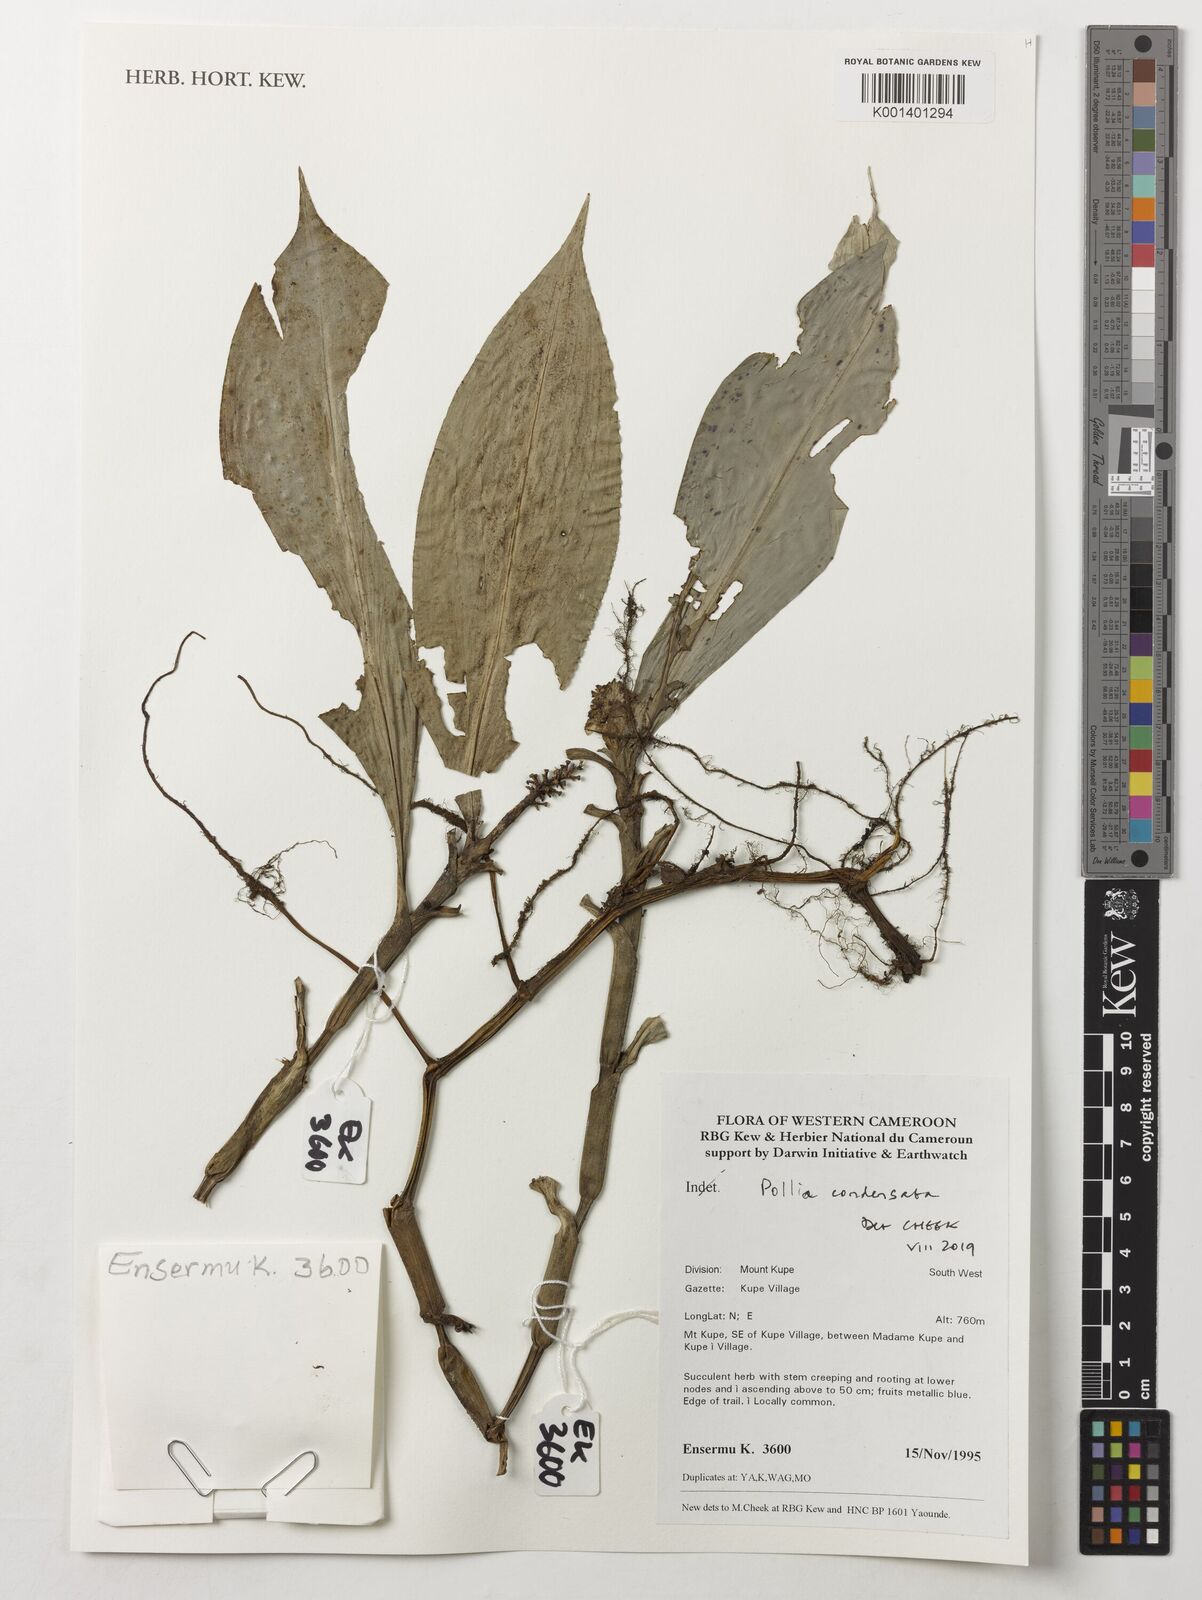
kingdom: Plantae
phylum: Tracheophyta
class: Liliopsida
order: Commelinales
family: Commelinaceae
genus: Pollia
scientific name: Pollia condensata
